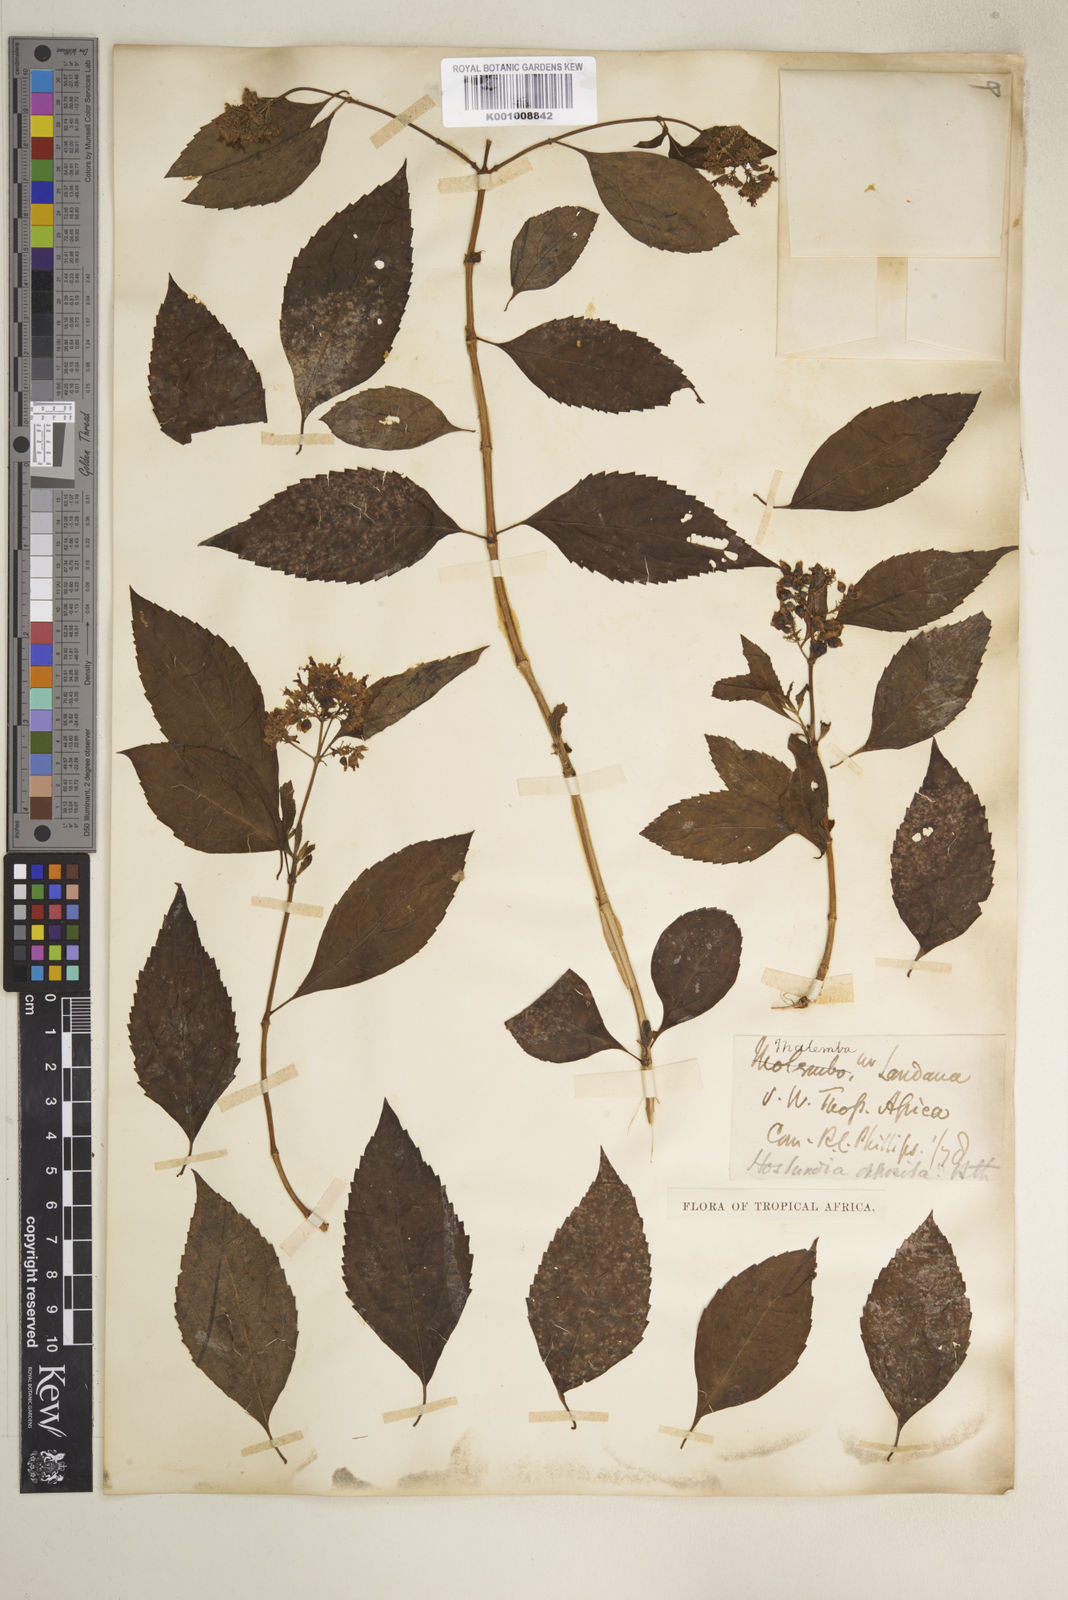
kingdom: Plantae
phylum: Tracheophyta
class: Magnoliopsida
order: Lamiales
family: Lamiaceae
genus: Hoslundia
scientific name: Hoslundia opposita
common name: Kamyuye
